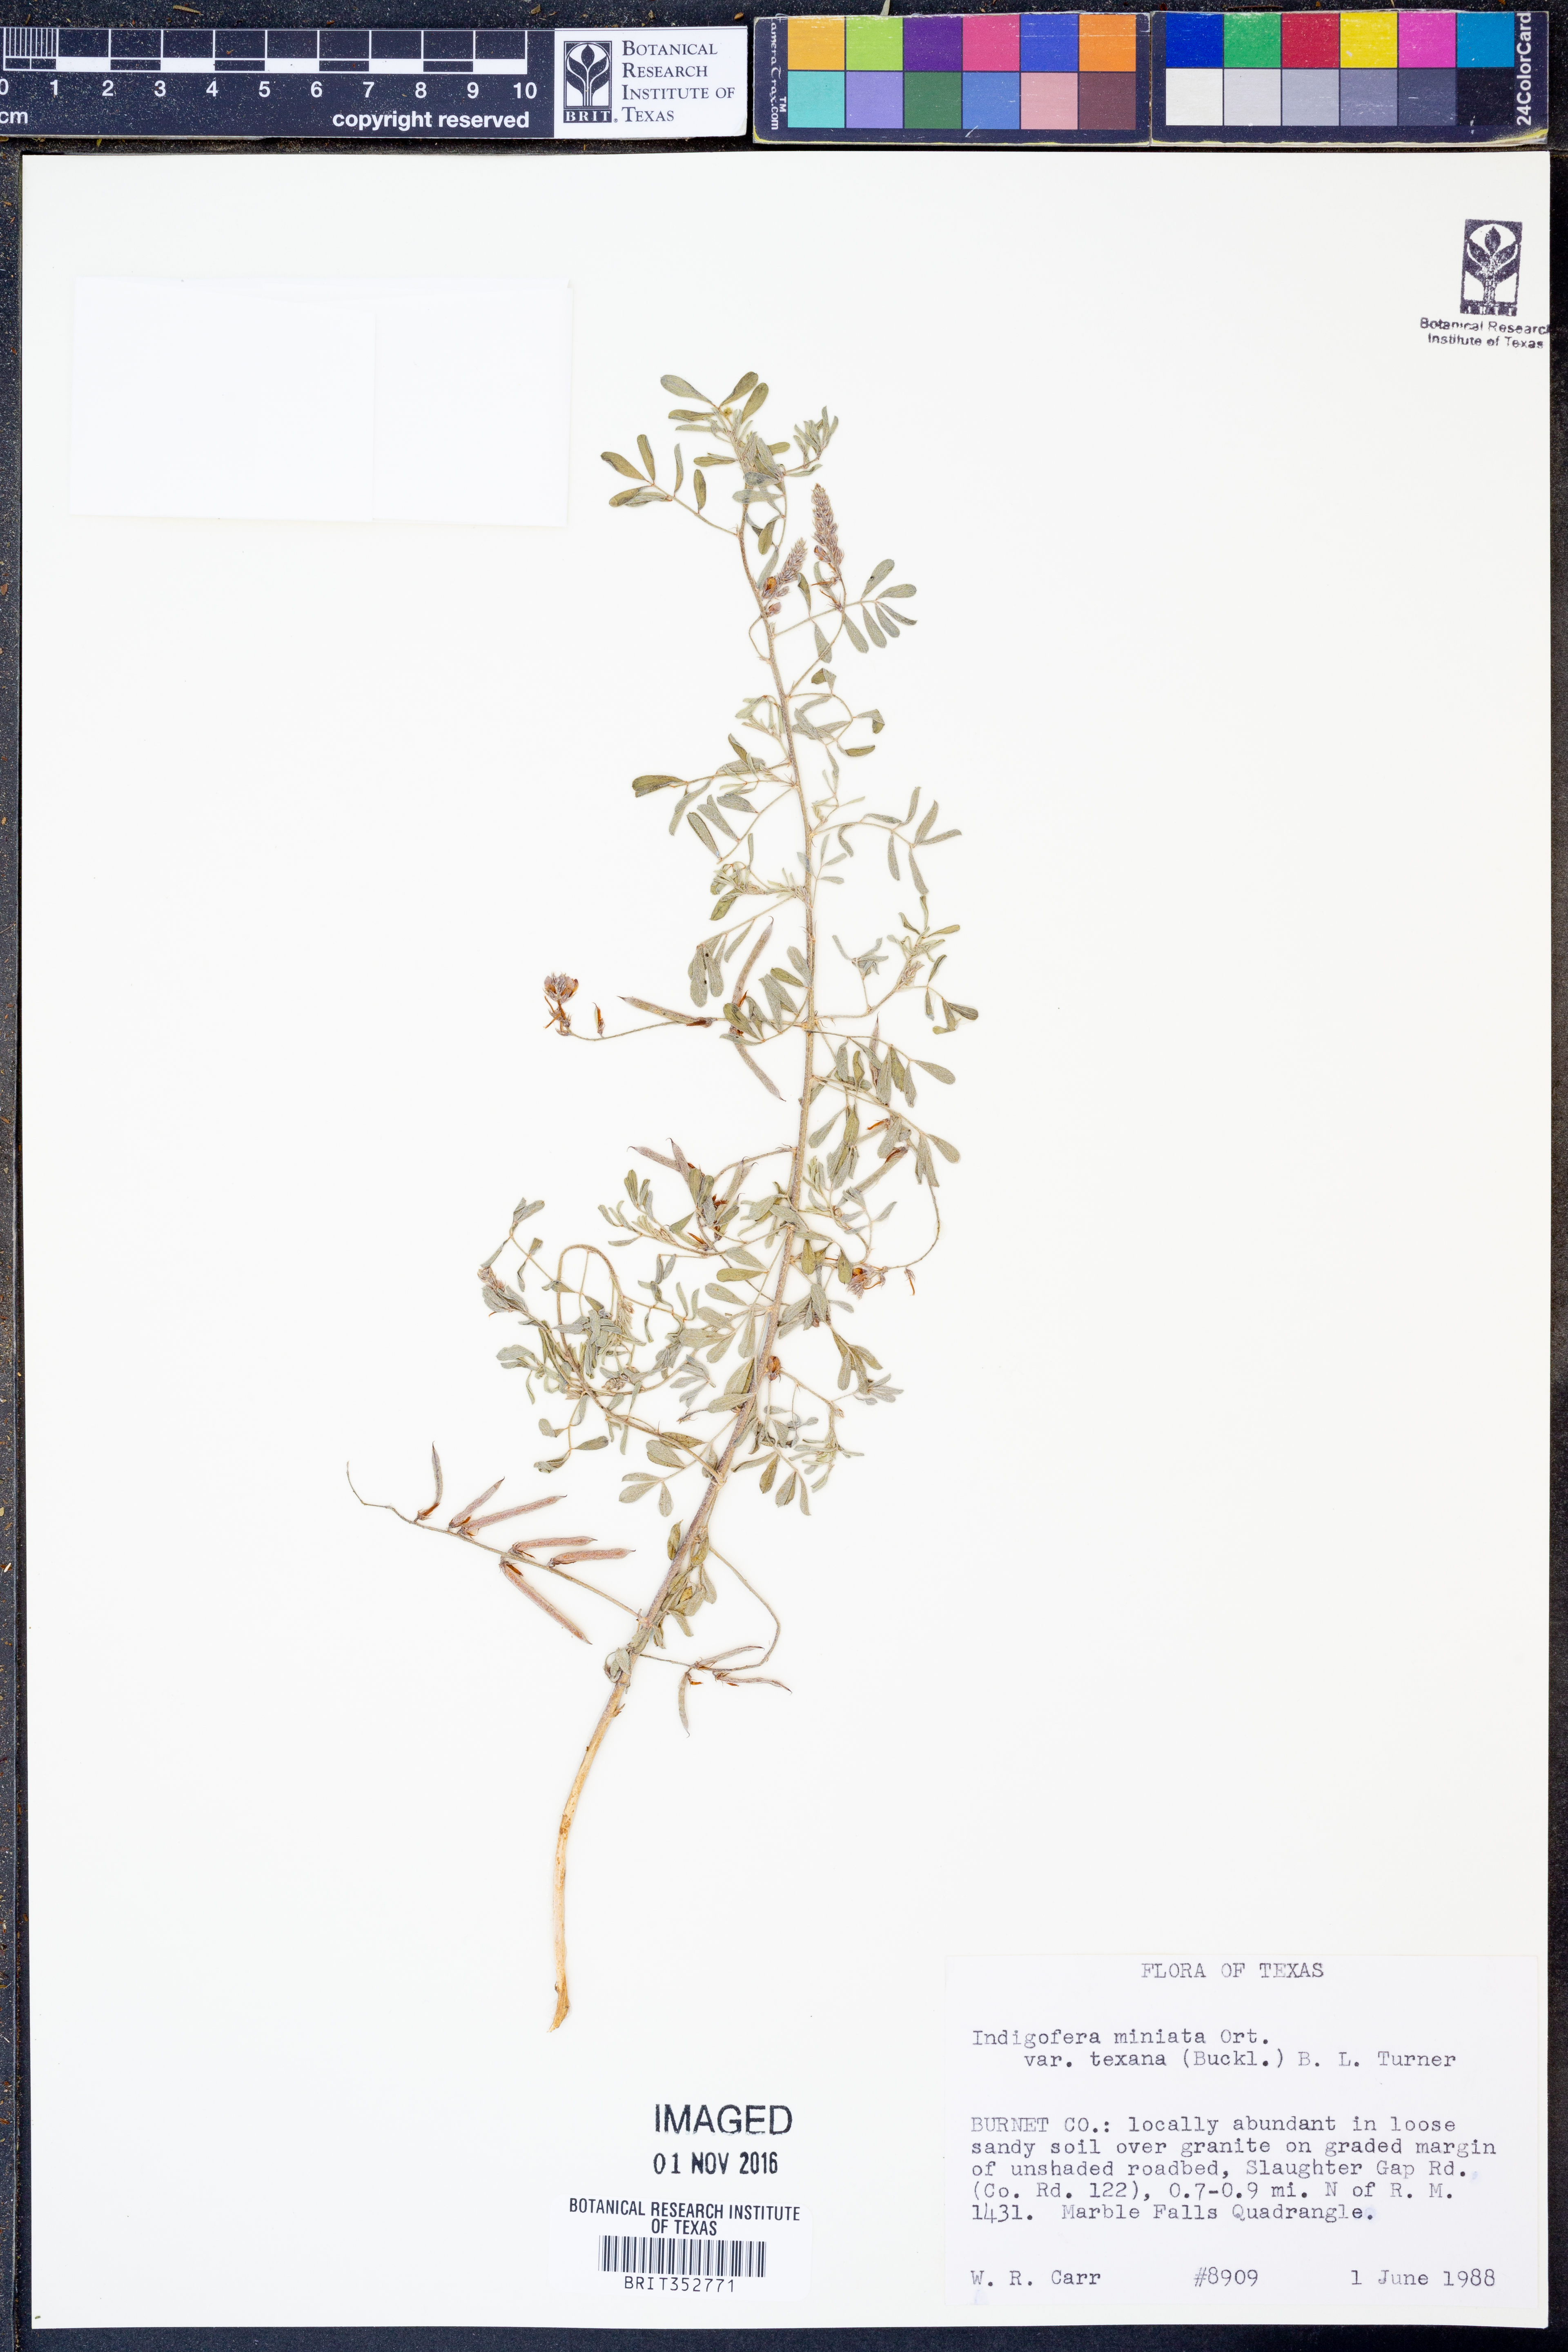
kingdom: Plantae
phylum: Tracheophyta
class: Magnoliopsida
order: Fabales
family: Fabaceae
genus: Indigofera
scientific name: Indigofera miniata
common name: Coast indigo
